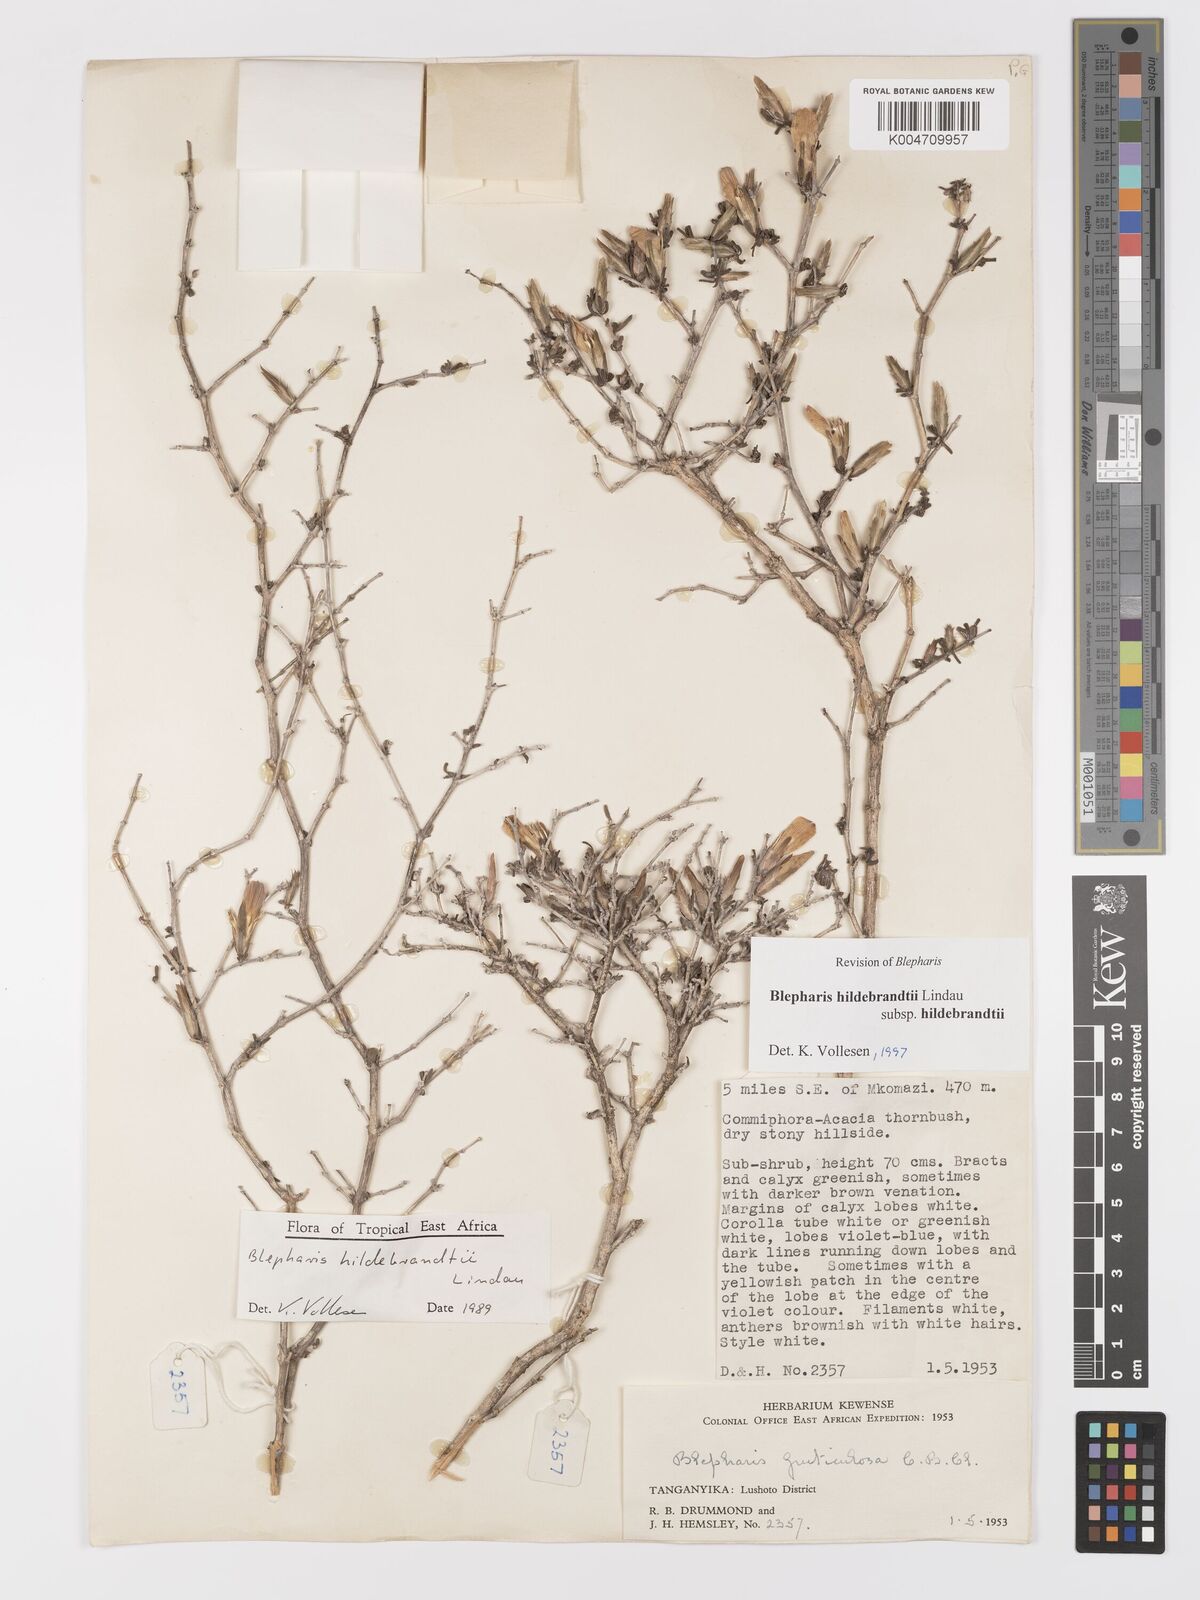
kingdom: Plantae
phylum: Tracheophyta
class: Magnoliopsida
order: Lamiales
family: Acanthaceae
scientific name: Acanthaceae
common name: Acanthaceae
